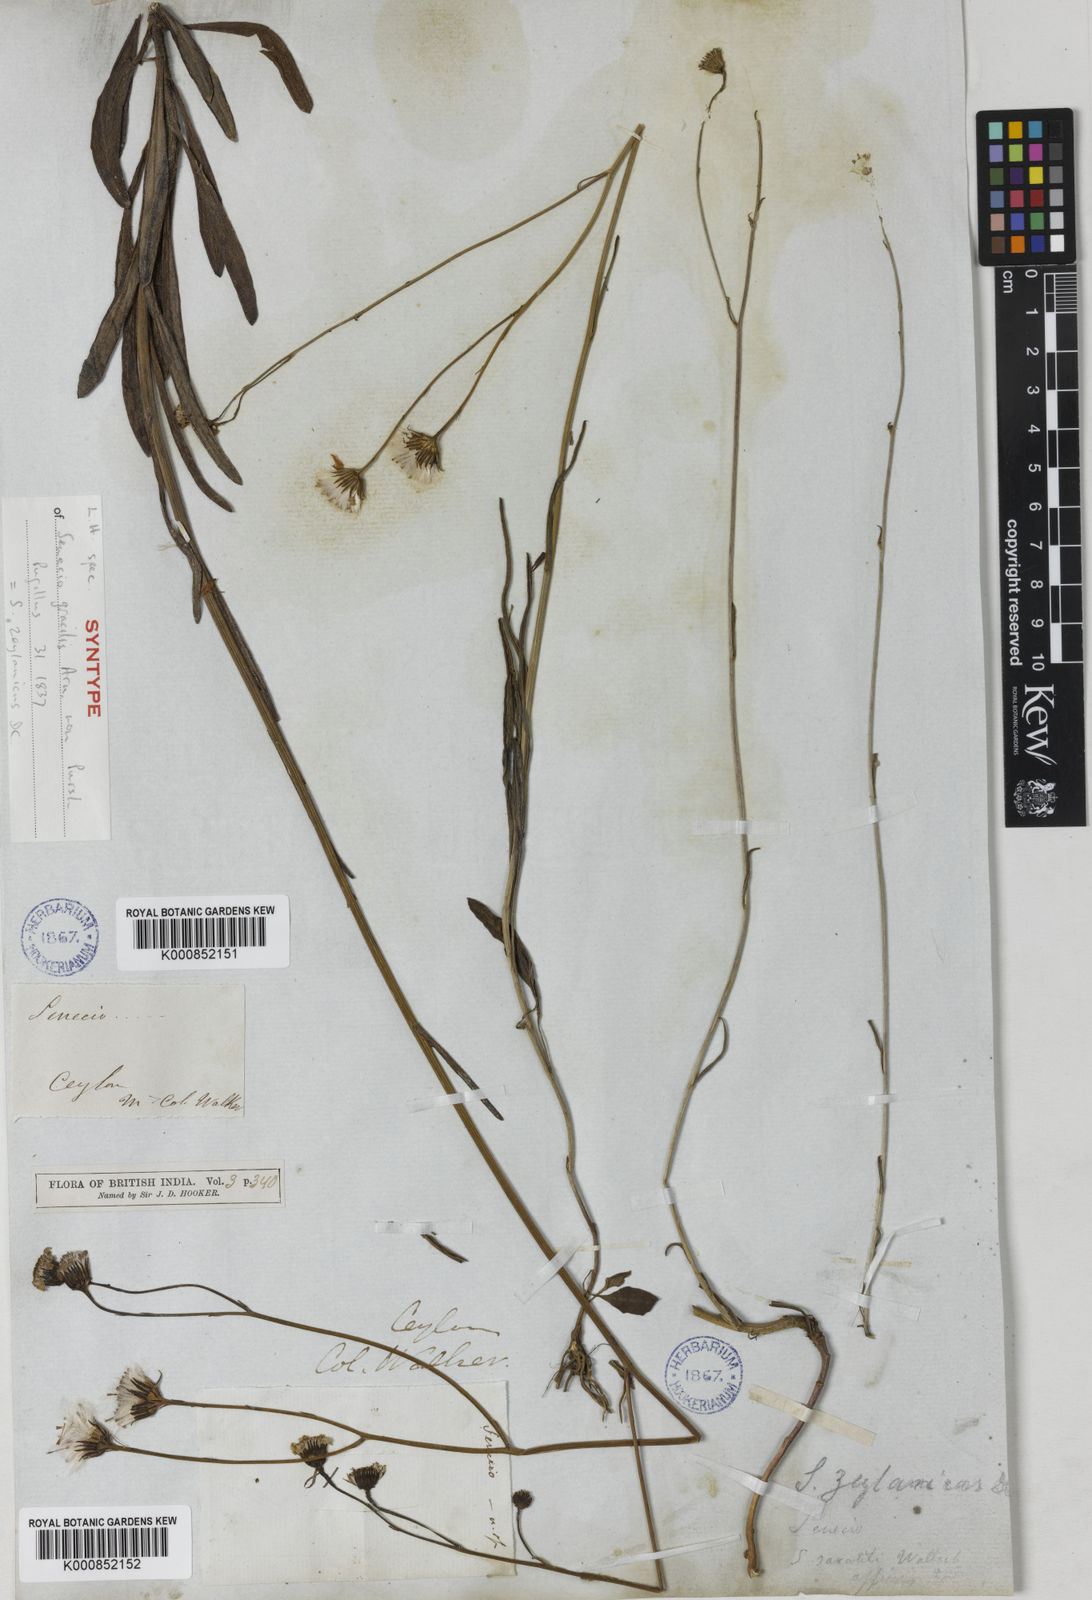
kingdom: Plantae
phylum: Tracheophyta
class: Magnoliopsida
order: Asterales
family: Asteraceae
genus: Senecio
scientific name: Senecio zeylanicus
